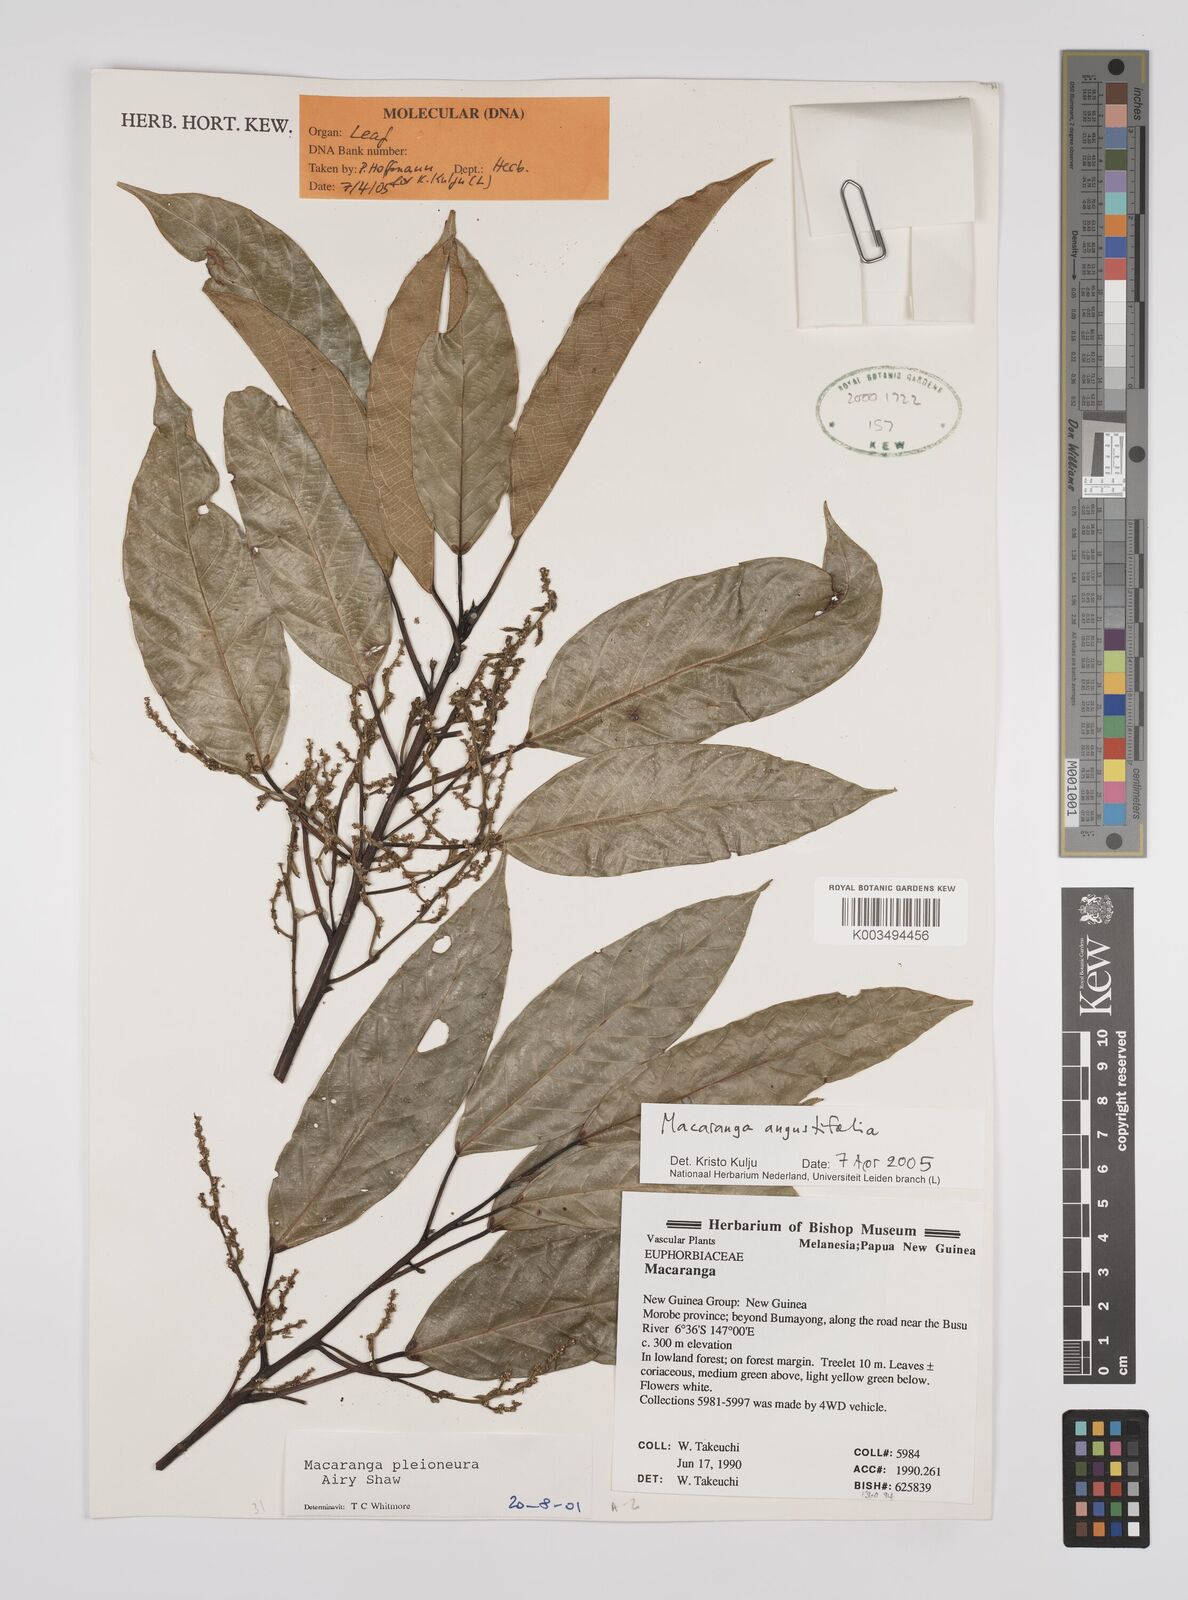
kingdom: Plantae
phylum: Tracheophyta
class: Magnoliopsida
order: Malpighiales
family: Euphorbiaceae
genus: Macaranga
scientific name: Macaranga angustifolia
